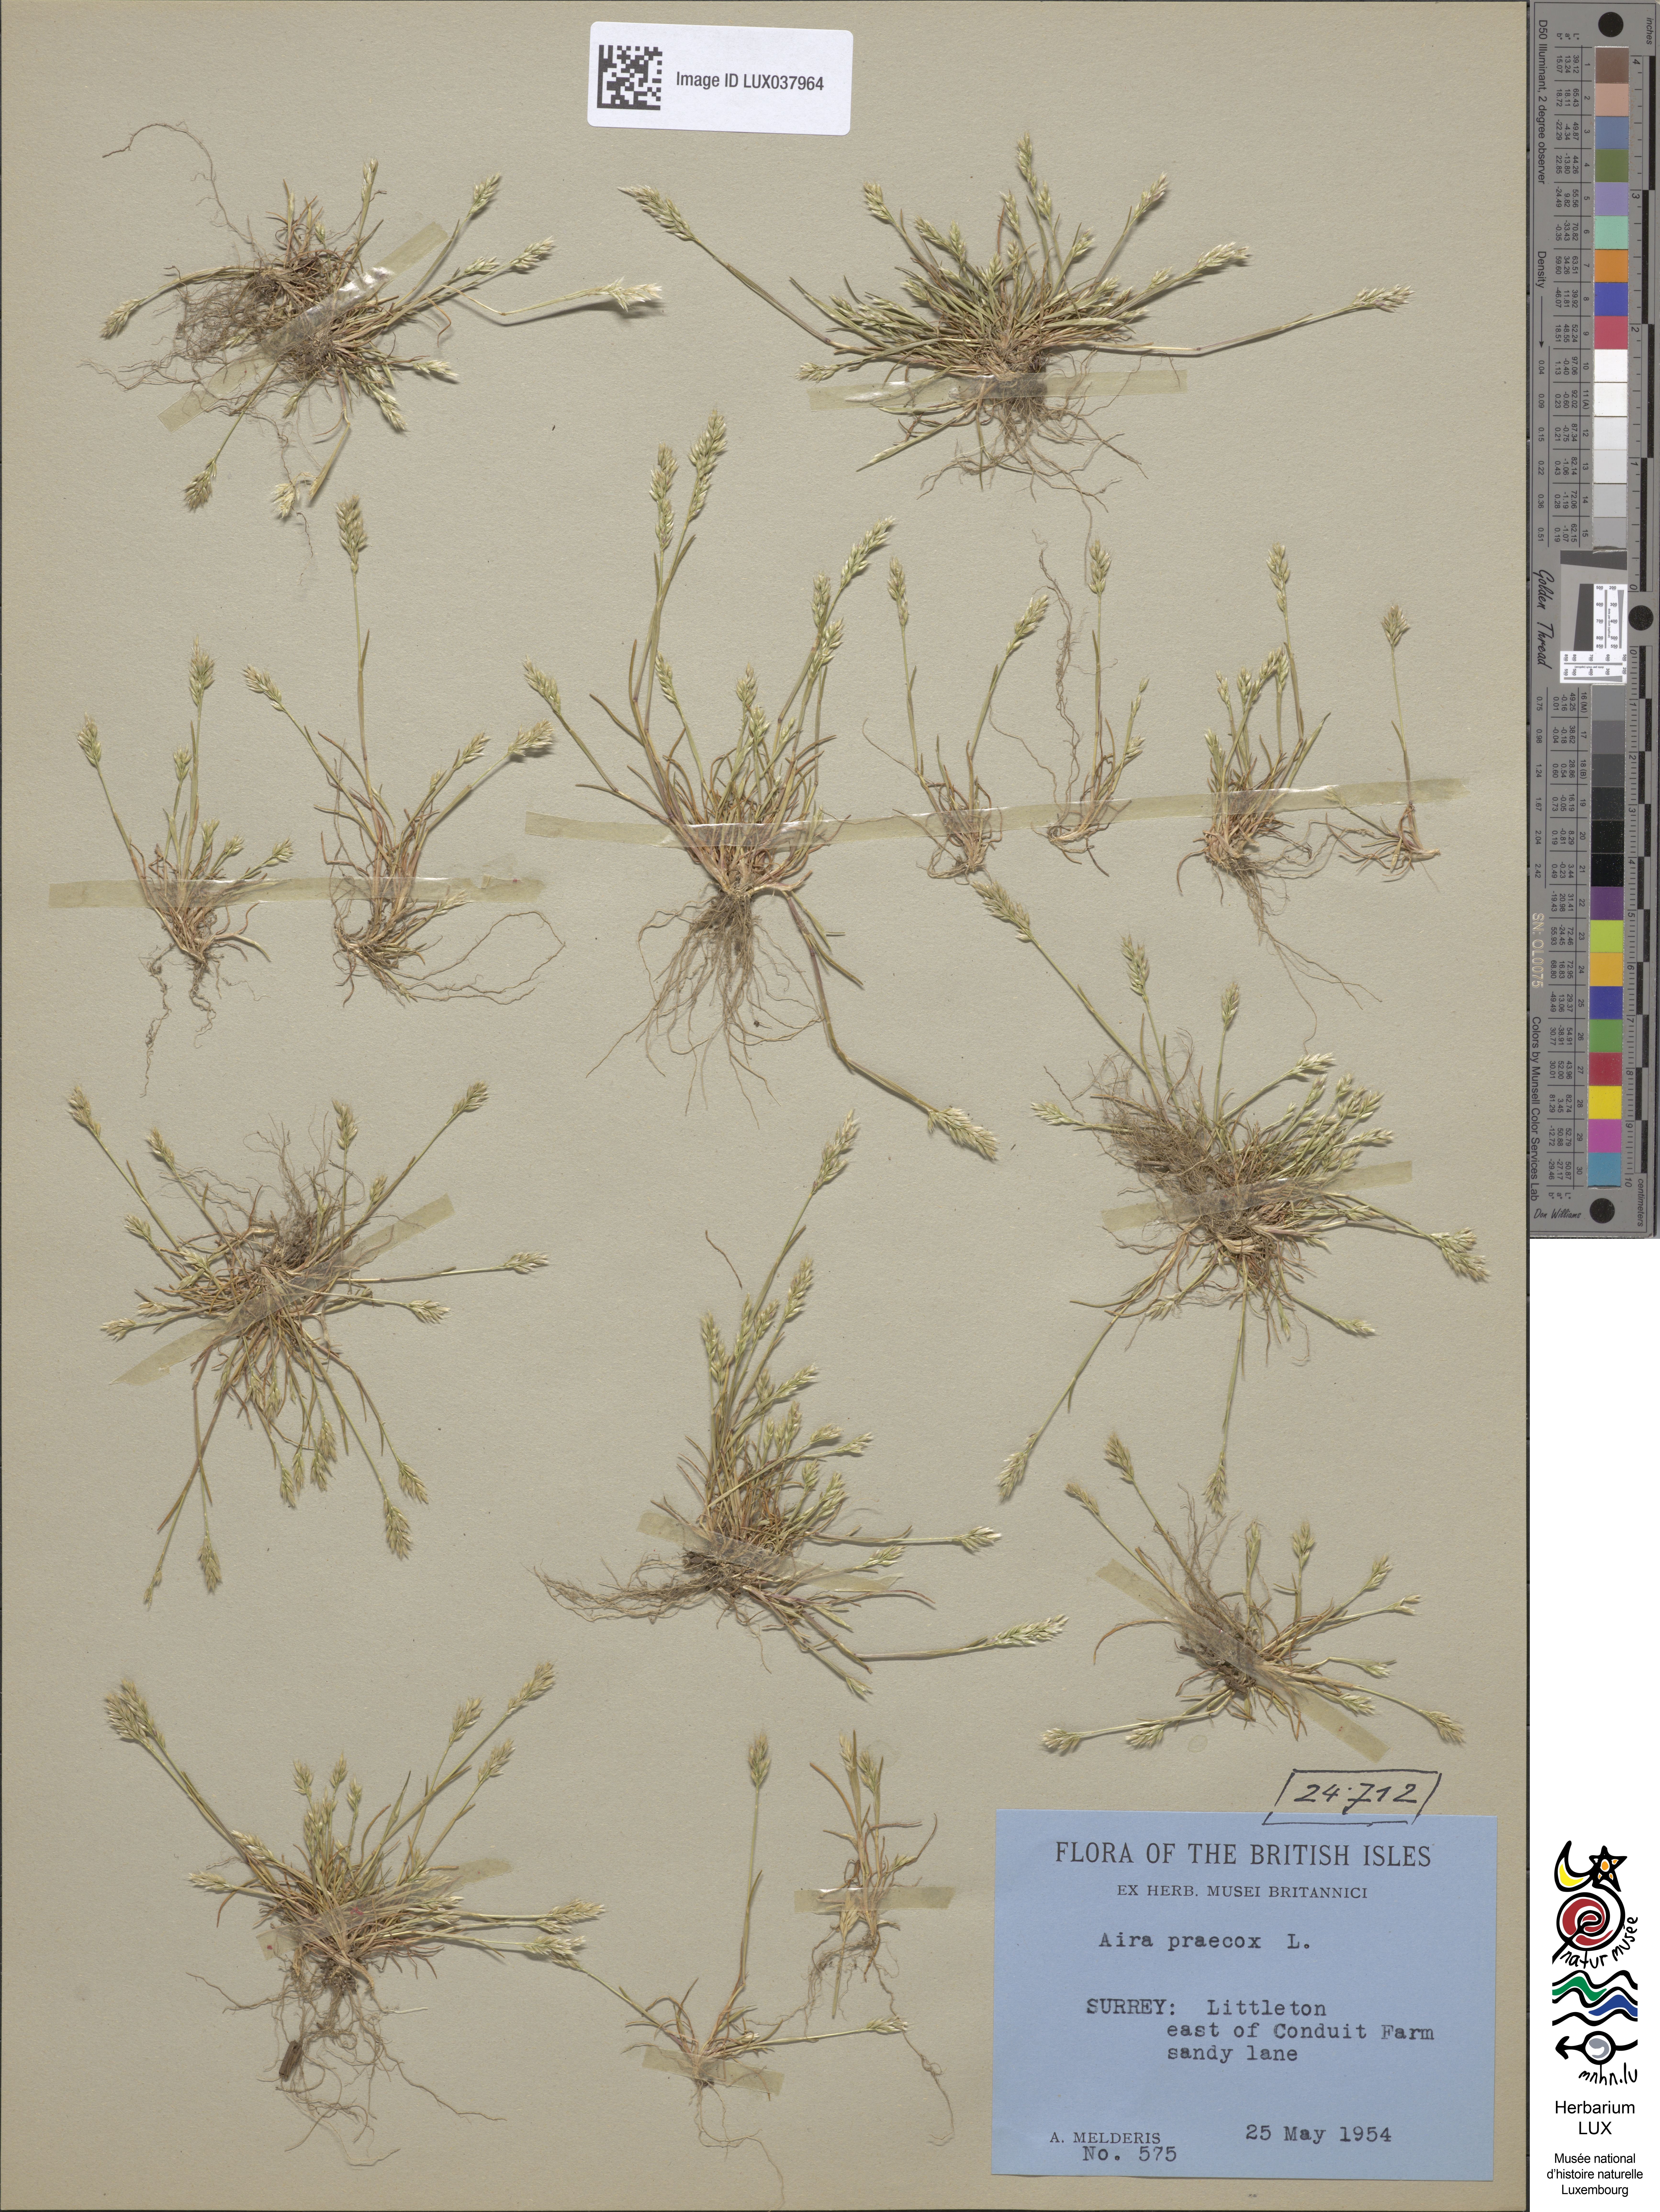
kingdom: Plantae
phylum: Tracheophyta
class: Liliopsida
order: Poales
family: Poaceae
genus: Aira
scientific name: Aira praecox
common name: Early hair-grass
